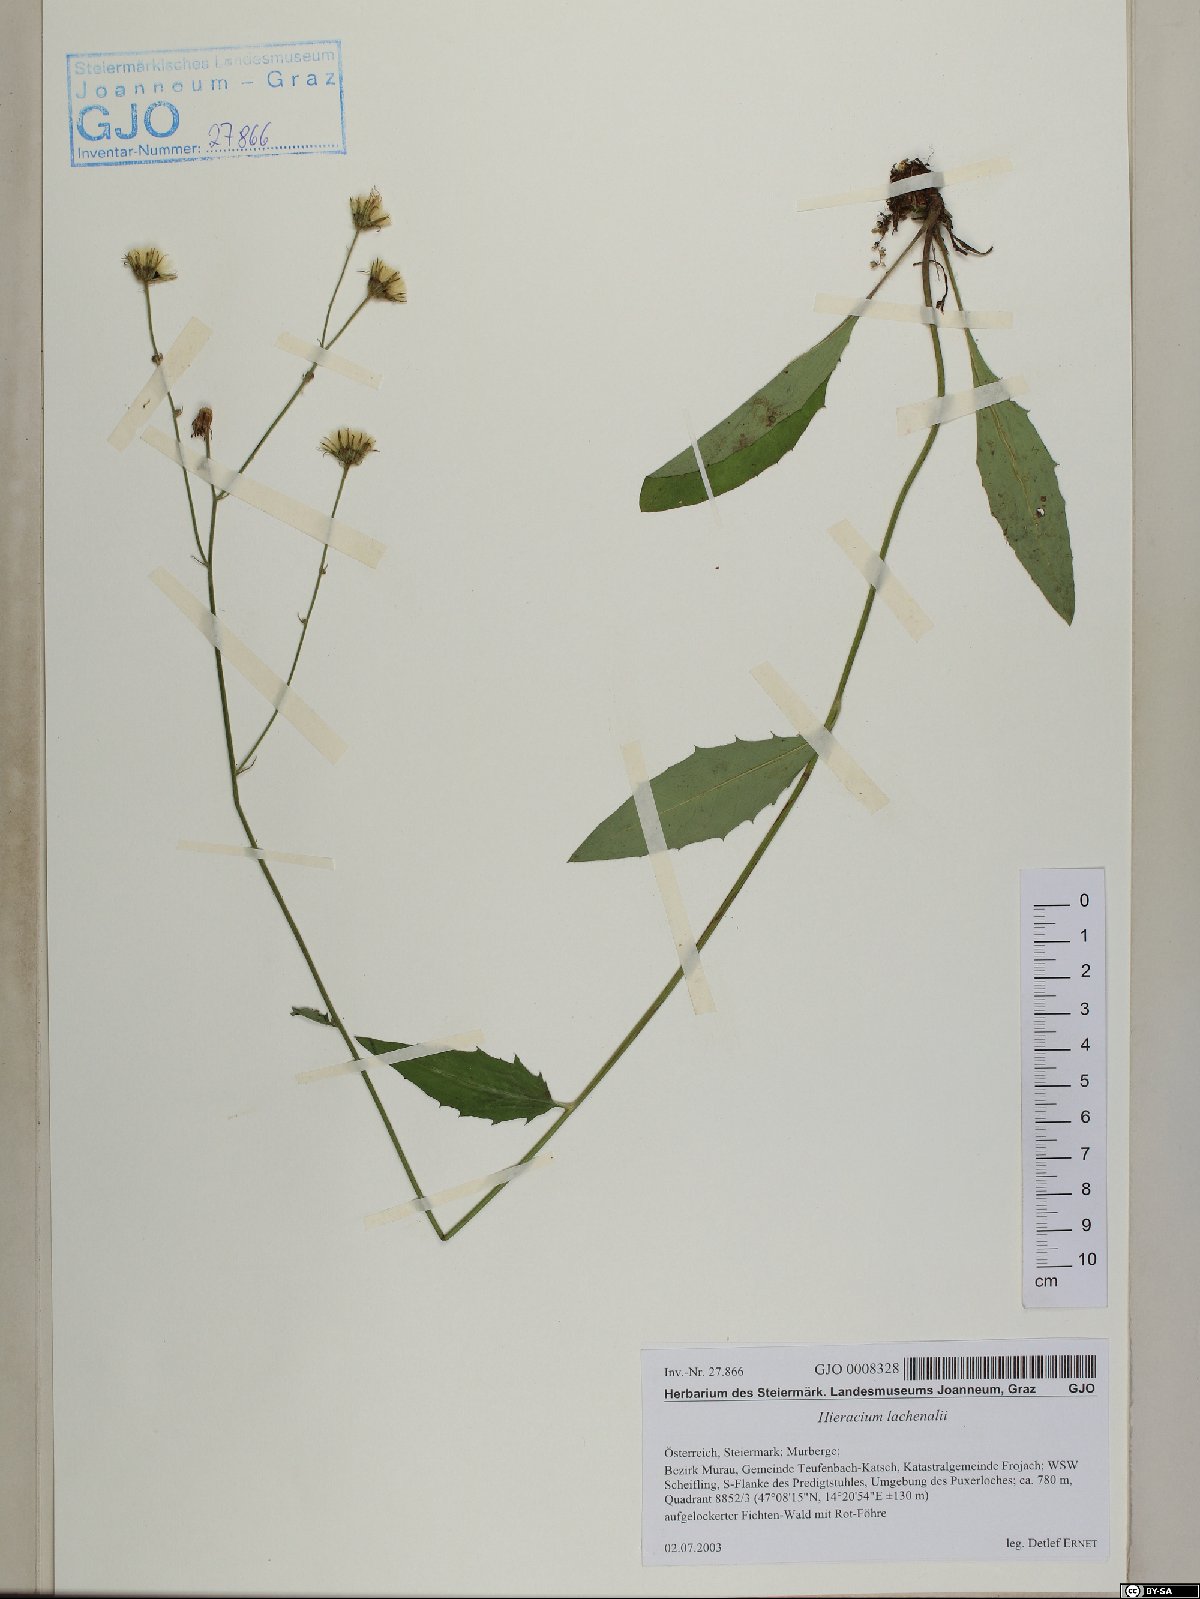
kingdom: Plantae
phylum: Tracheophyta
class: Magnoliopsida
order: Asterales
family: Asteraceae
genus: Hieracium
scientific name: Hieracium lachenalii
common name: Common hawkweed
